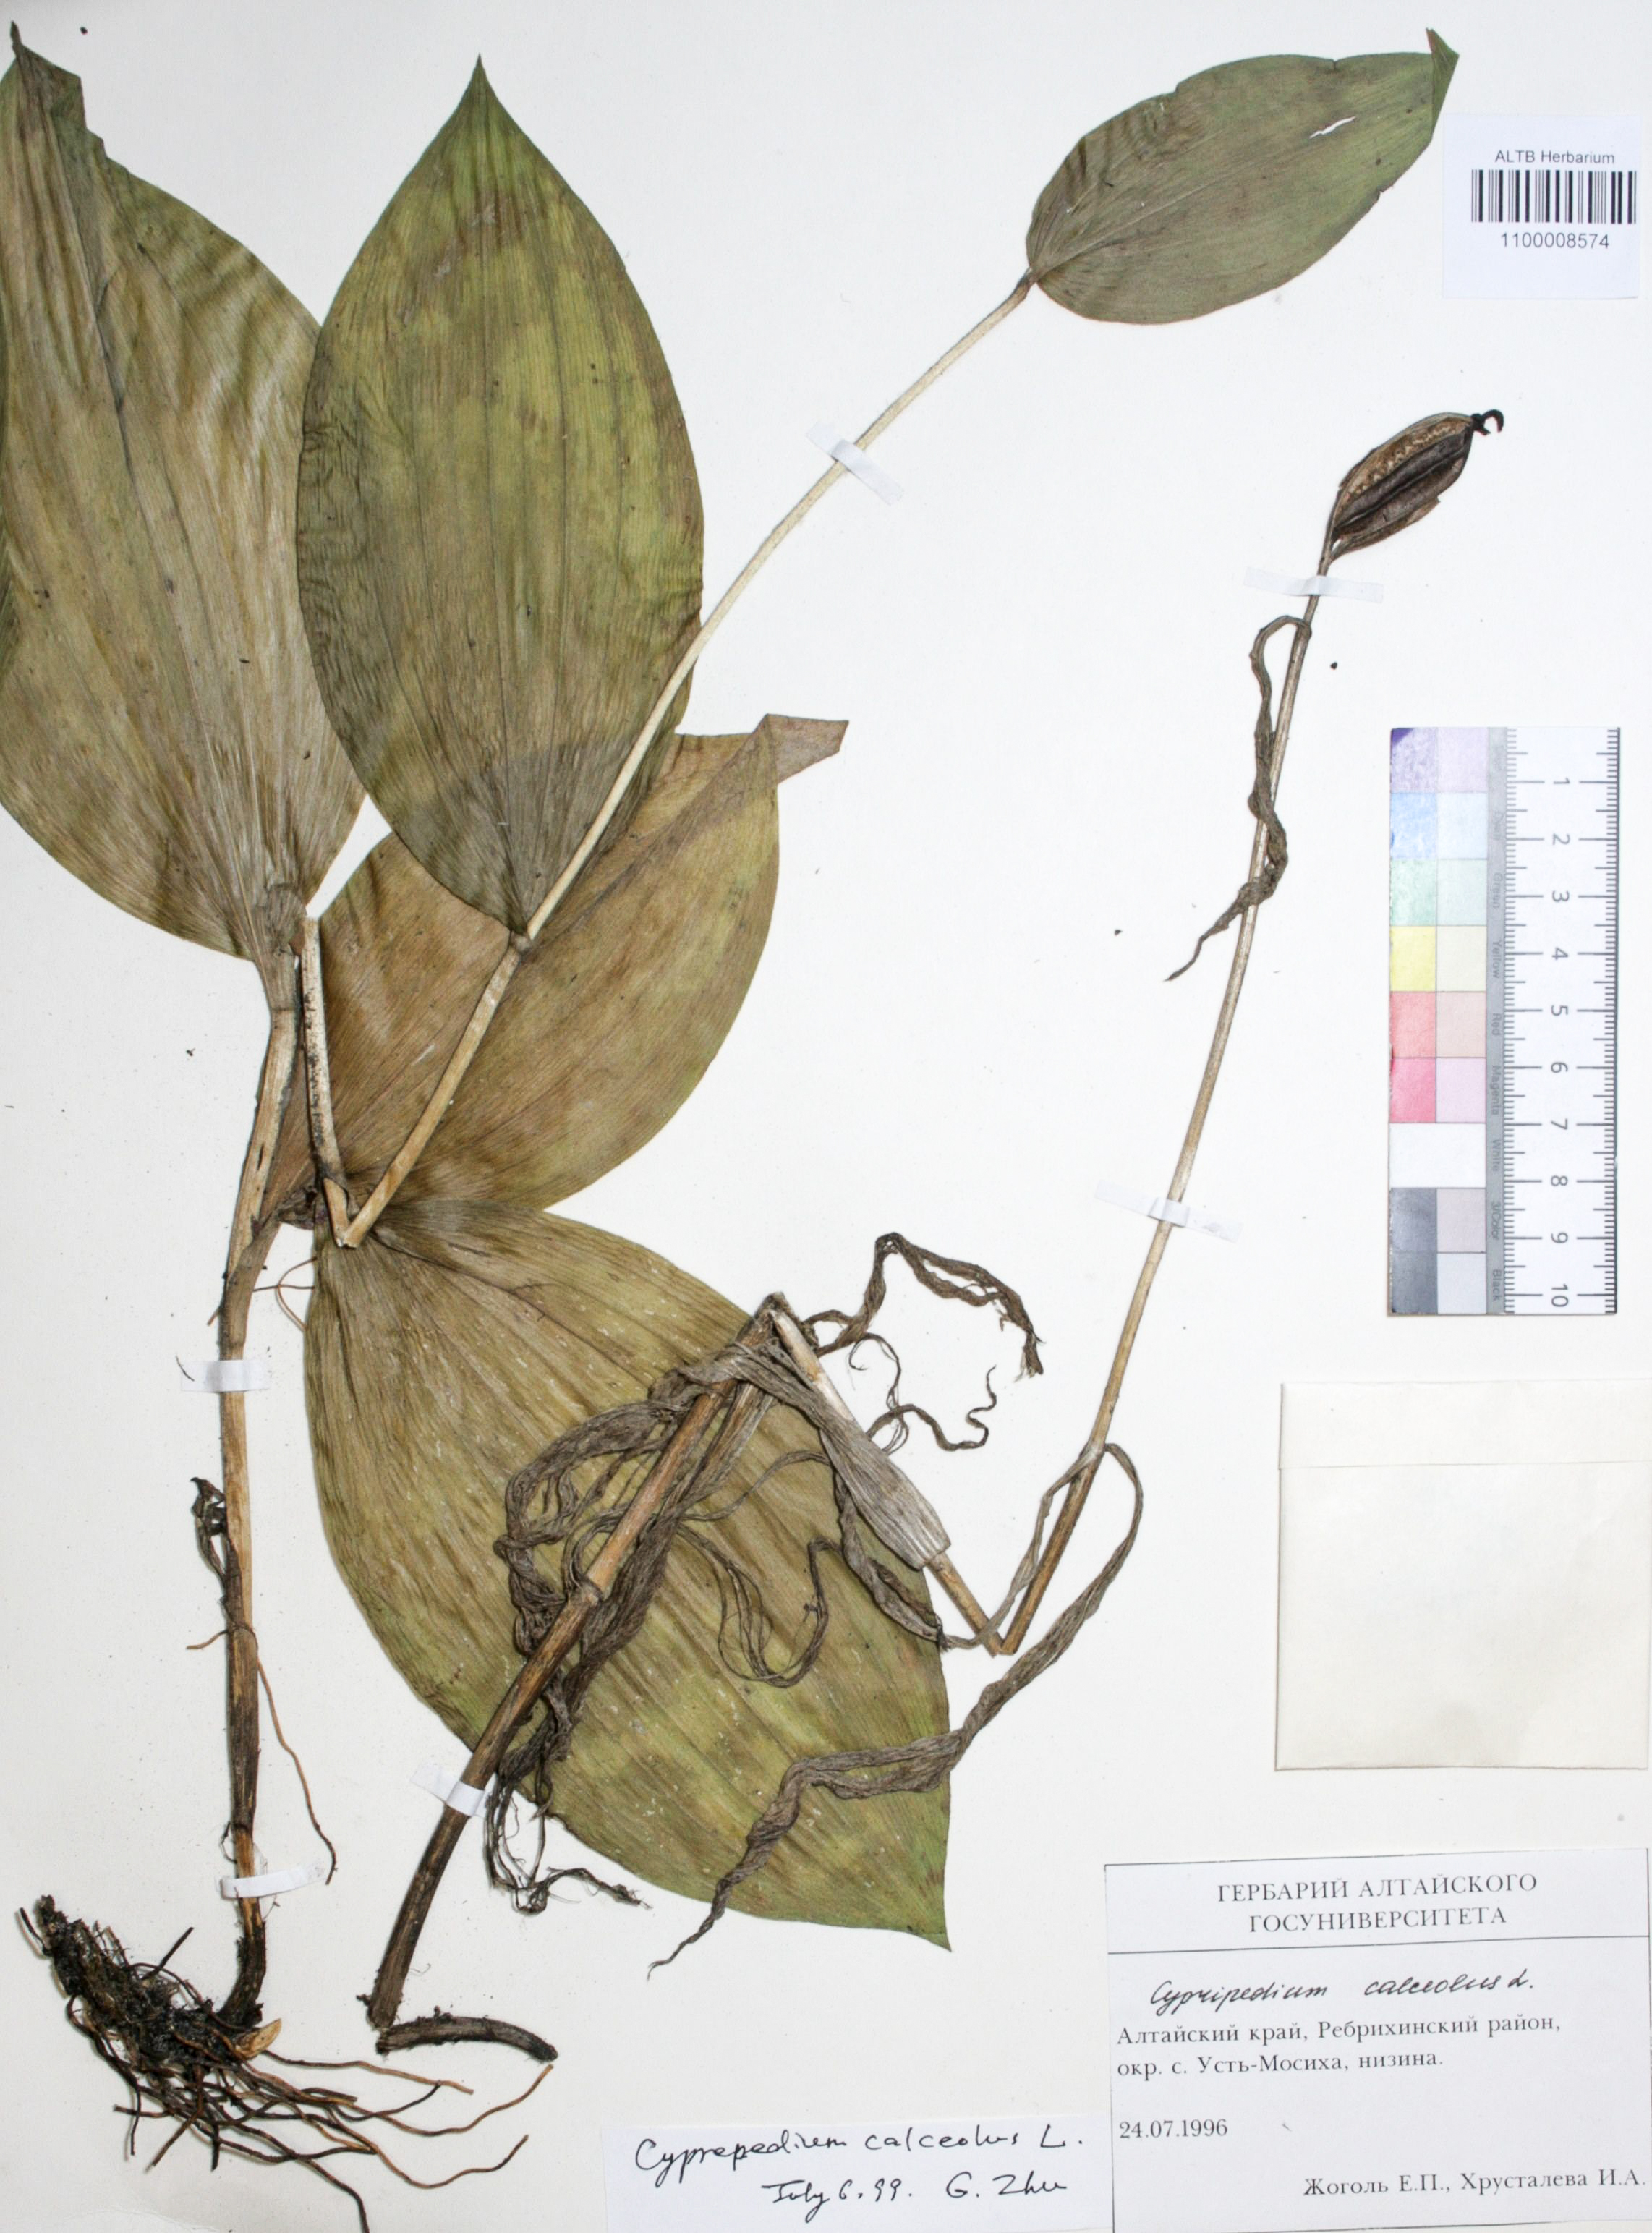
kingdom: Plantae
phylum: Tracheophyta
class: Liliopsida
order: Asparagales
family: Orchidaceae
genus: Cypripedium
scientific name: Cypripedium calceolus
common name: Lady's-slipper
